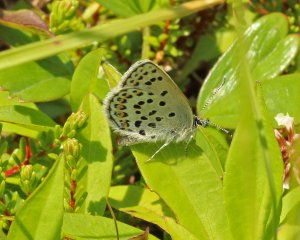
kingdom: Animalia
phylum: Arthropoda
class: Insecta
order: Lepidoptera
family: Lycaenidae
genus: Lycaeides
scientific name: Lycaeides idas
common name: Northern Blue
